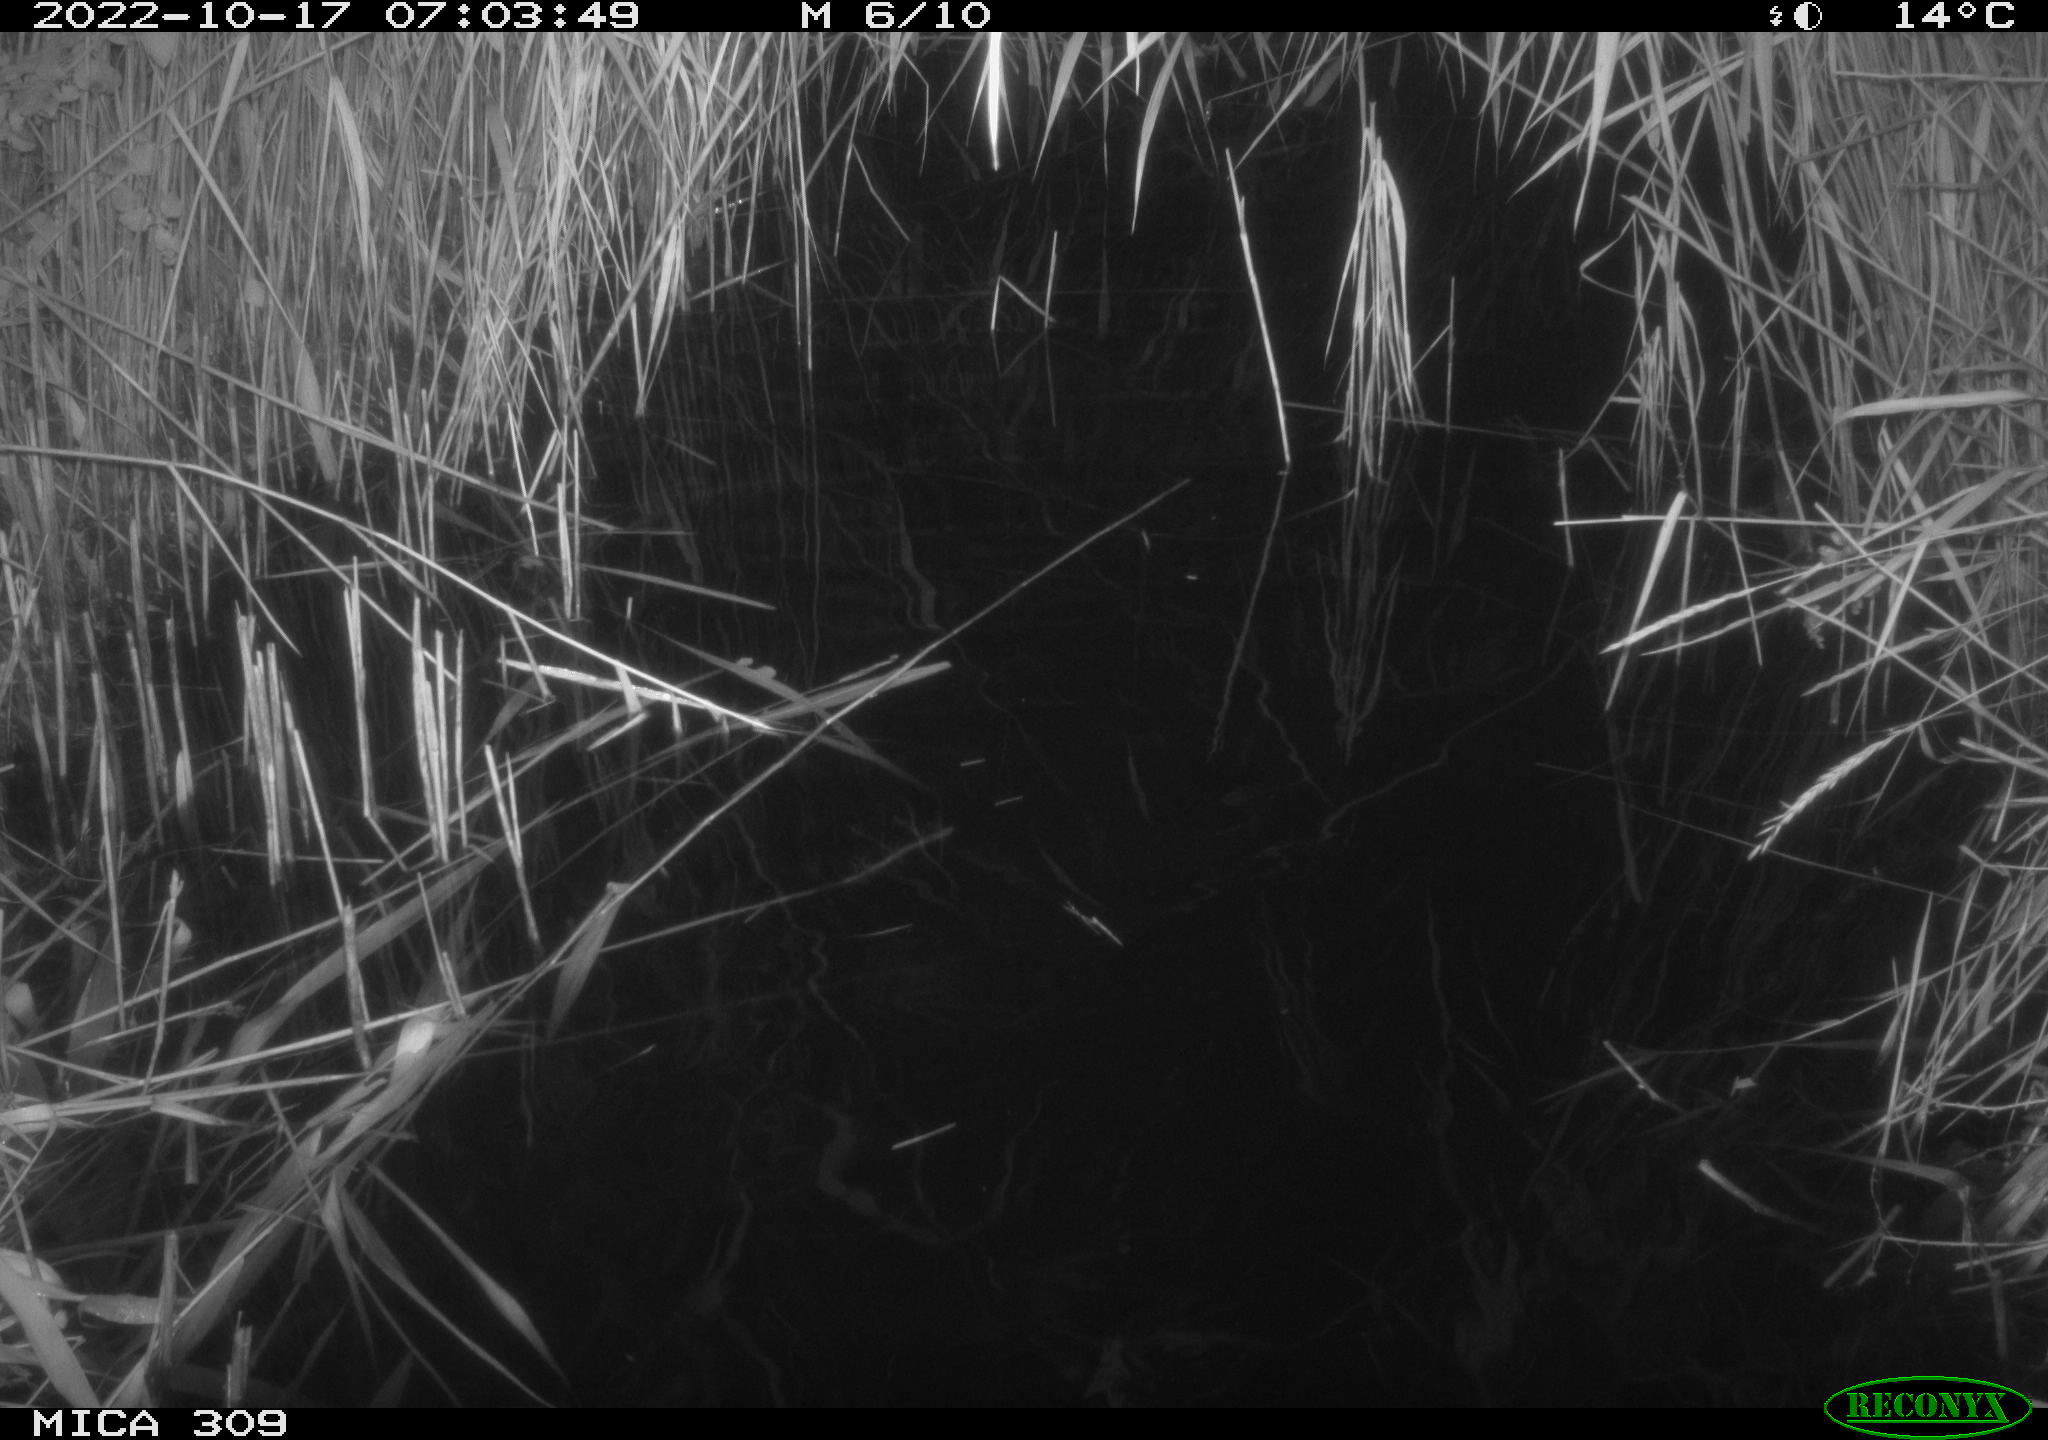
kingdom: Animalia
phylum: Chordata
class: Mammalia
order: Rodentia
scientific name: Rodentia
